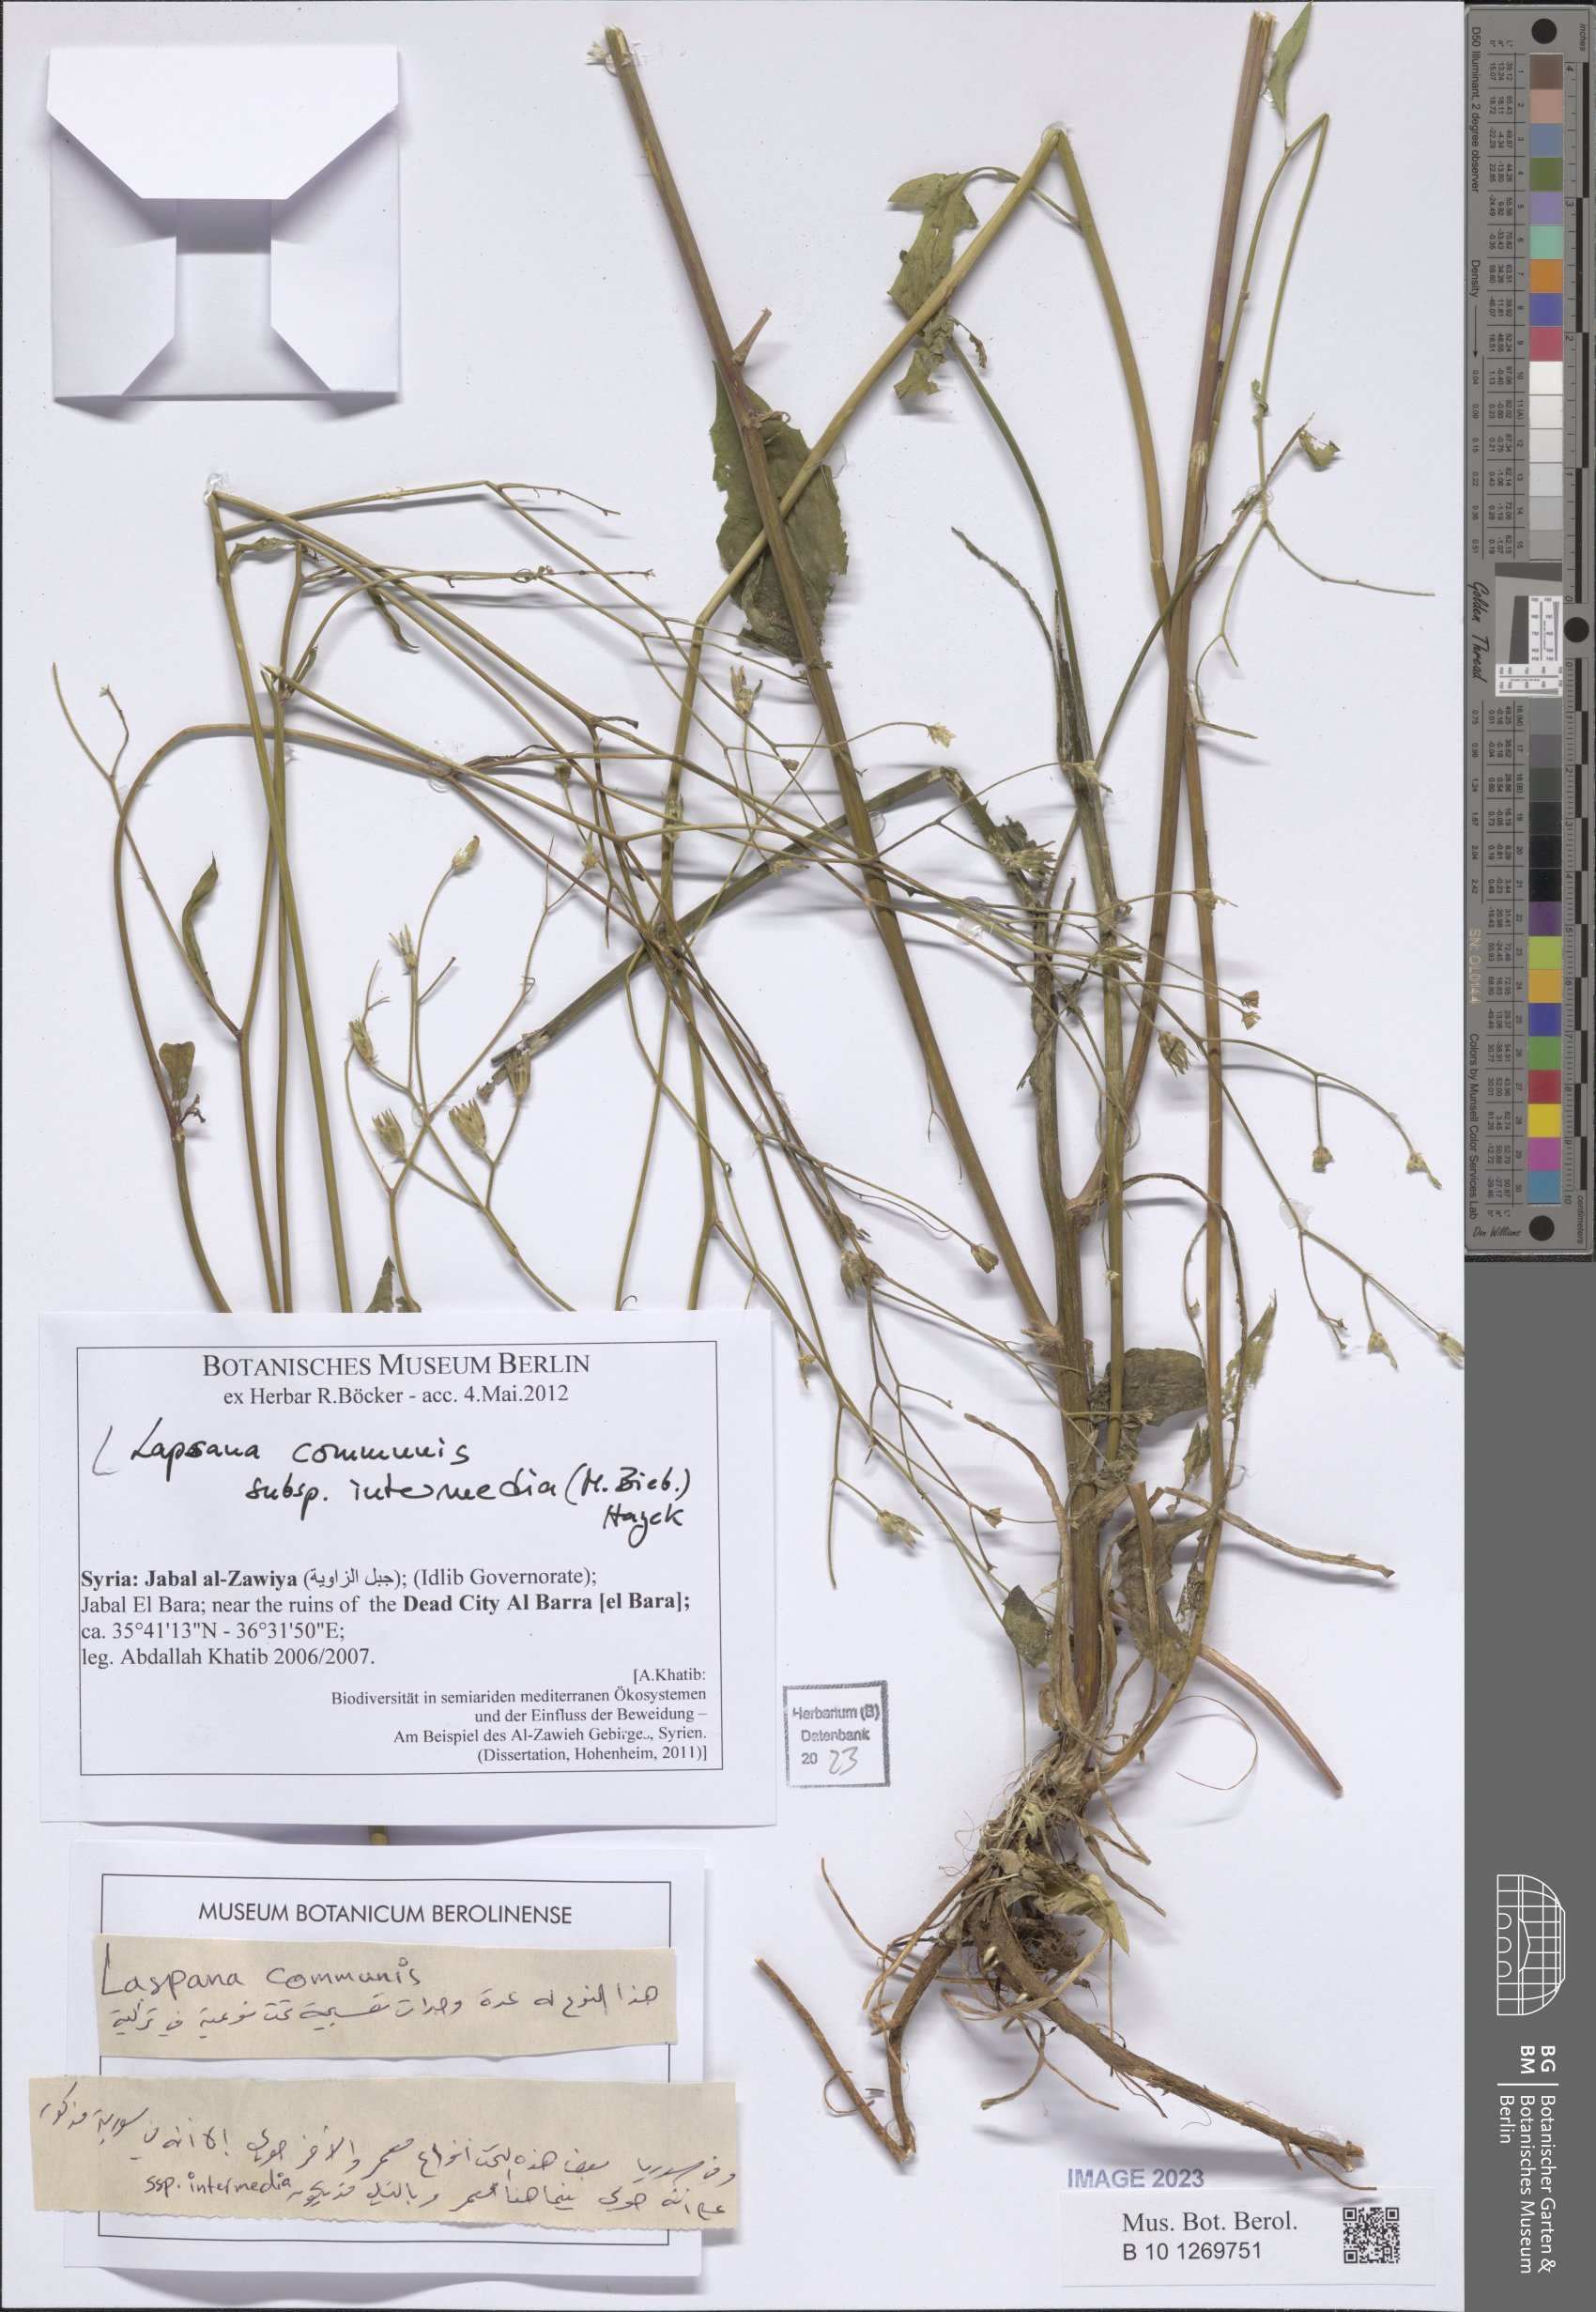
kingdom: Plantae
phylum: Tracheophyta
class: Magnoliopsida
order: Asterales
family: Asteraceae
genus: Lapsana
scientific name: Lapsana communis
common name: Nipplewort
